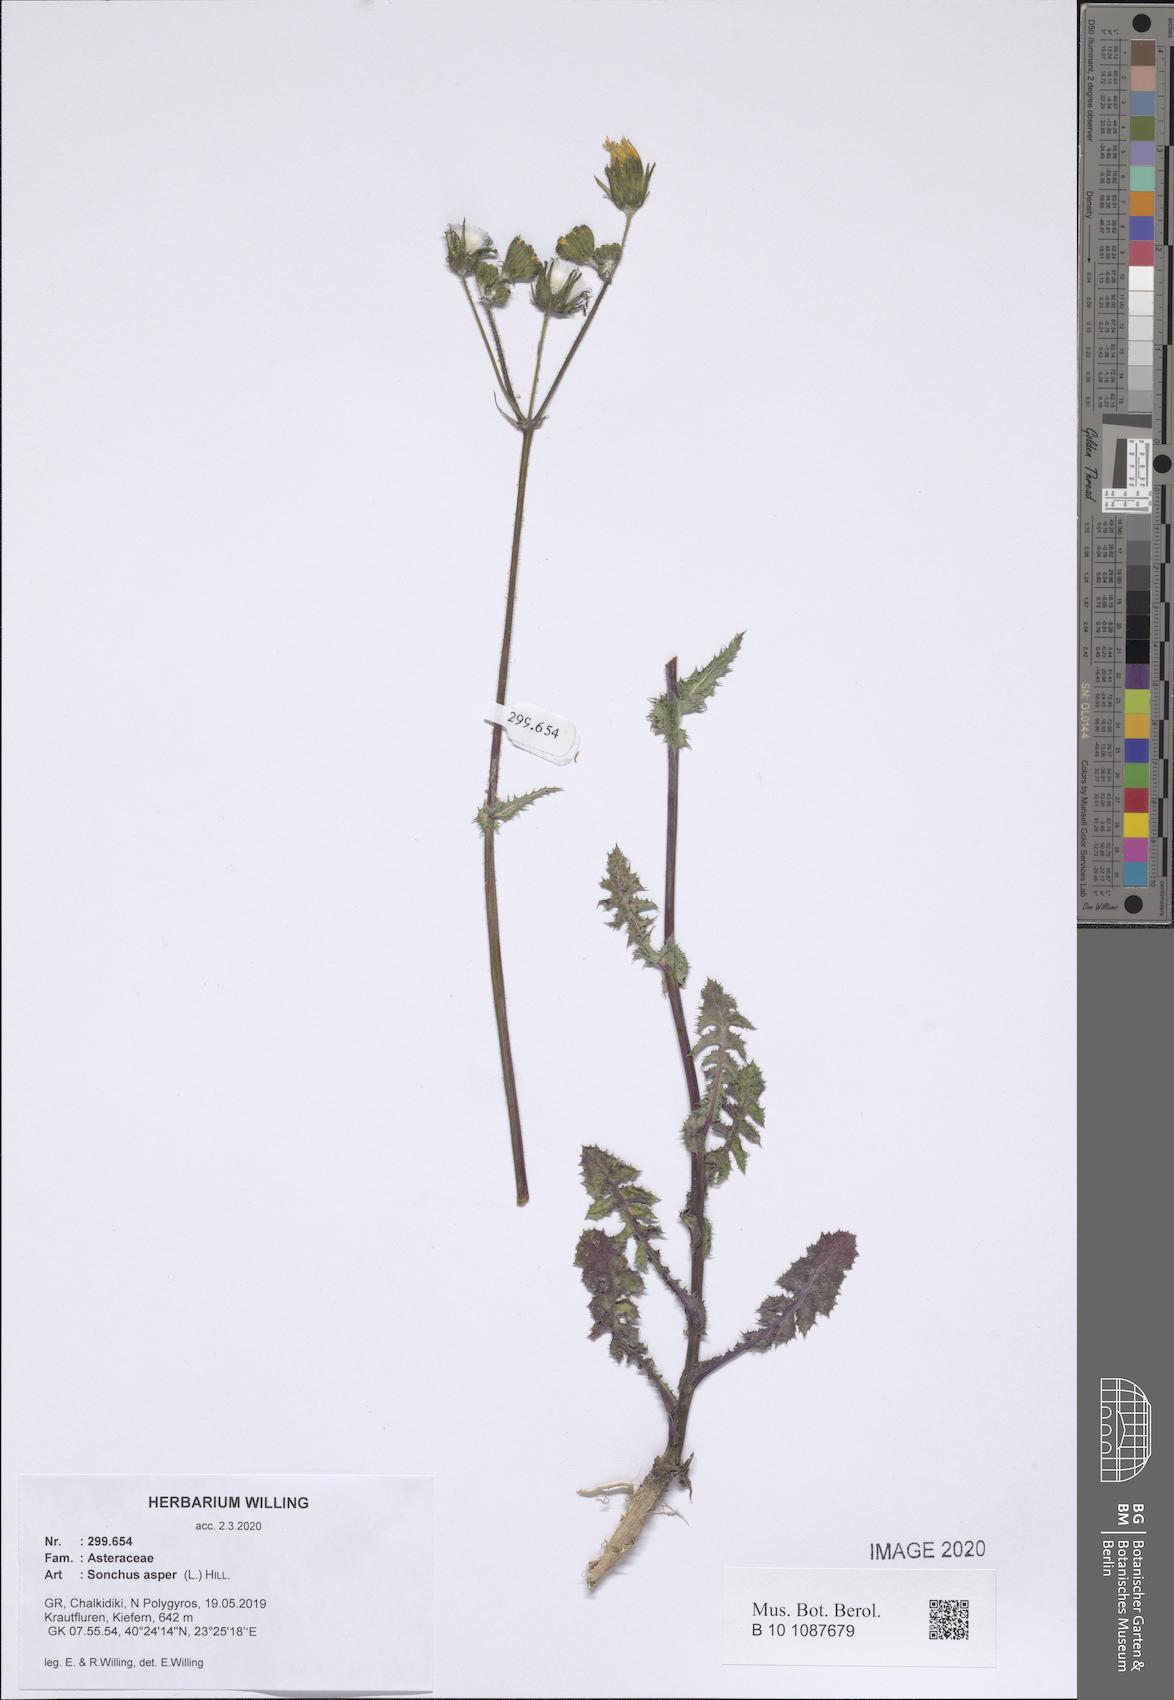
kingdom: Plantae
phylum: Tracheophyta
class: Magnoliopsida
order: Asterales
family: Asteraceae
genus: Sonchus
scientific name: Sonchus asper
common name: Prickly sow-thistle
